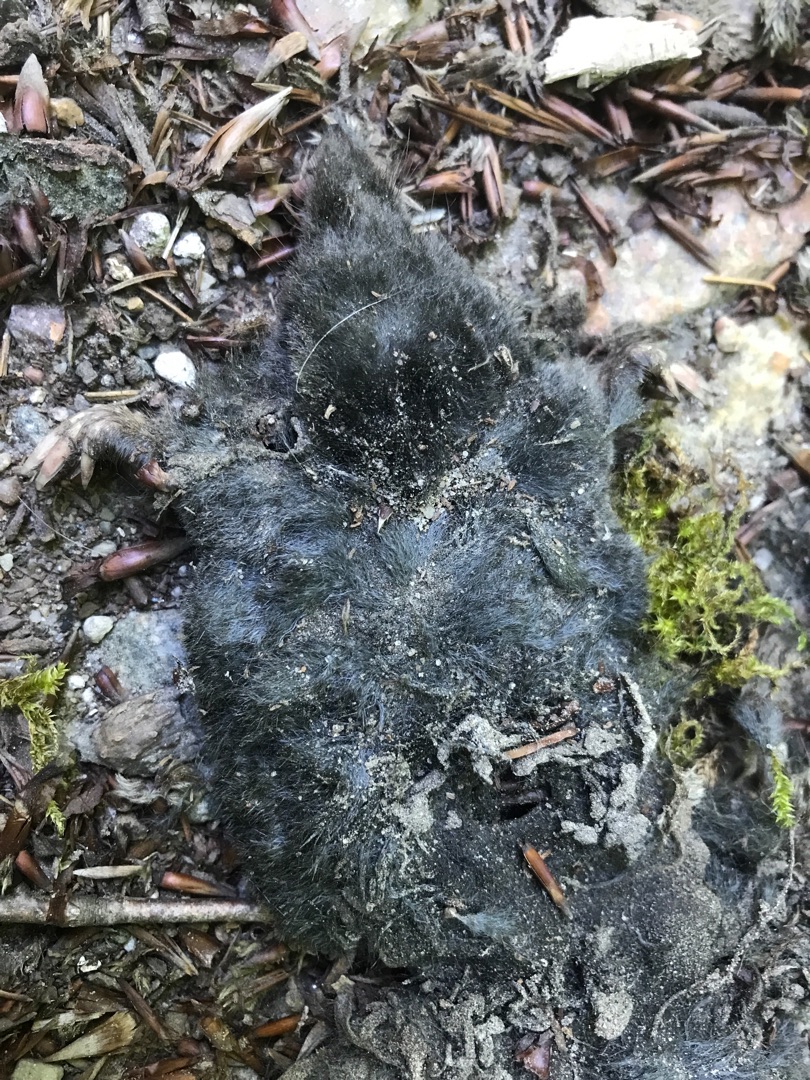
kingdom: Animalia
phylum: Chordata
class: Mammalia
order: Soricomorpha
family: Talpidae
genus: Talpa
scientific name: Talpa europaea
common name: Muldvarp
